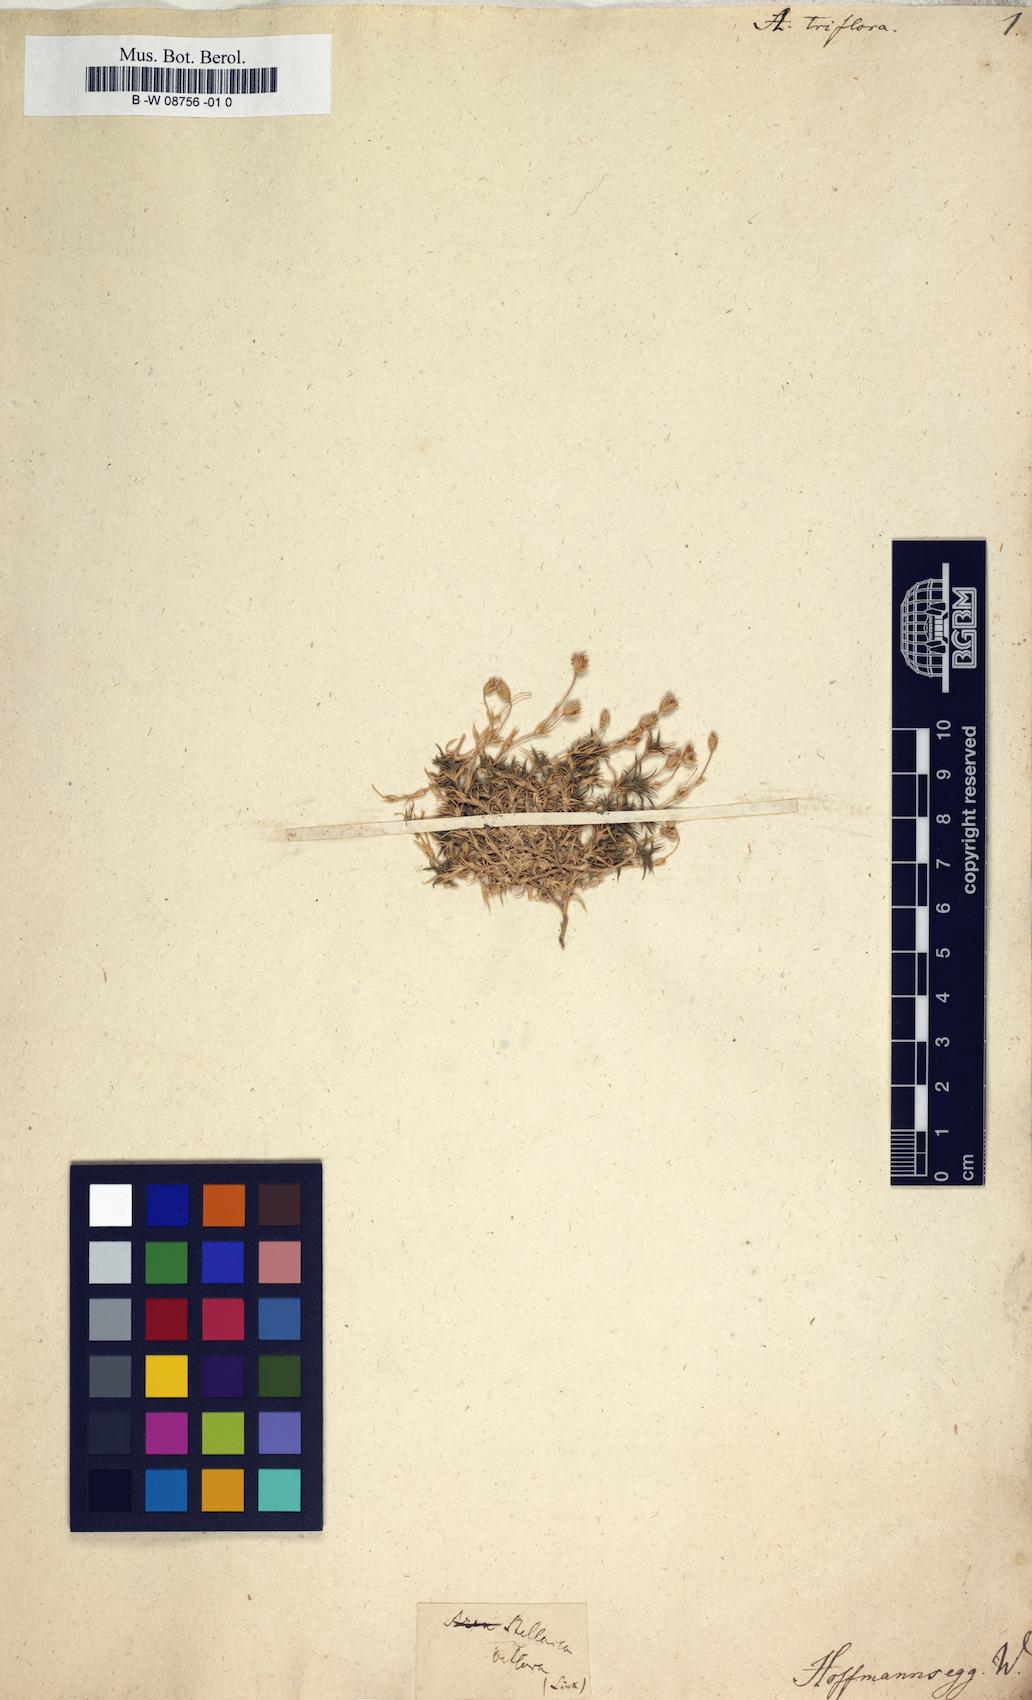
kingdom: Plantae
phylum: Tracheophyta
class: Magnoliopsida
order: Caryophyllales
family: Caryophyllaceae
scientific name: Caryophyllaceae
